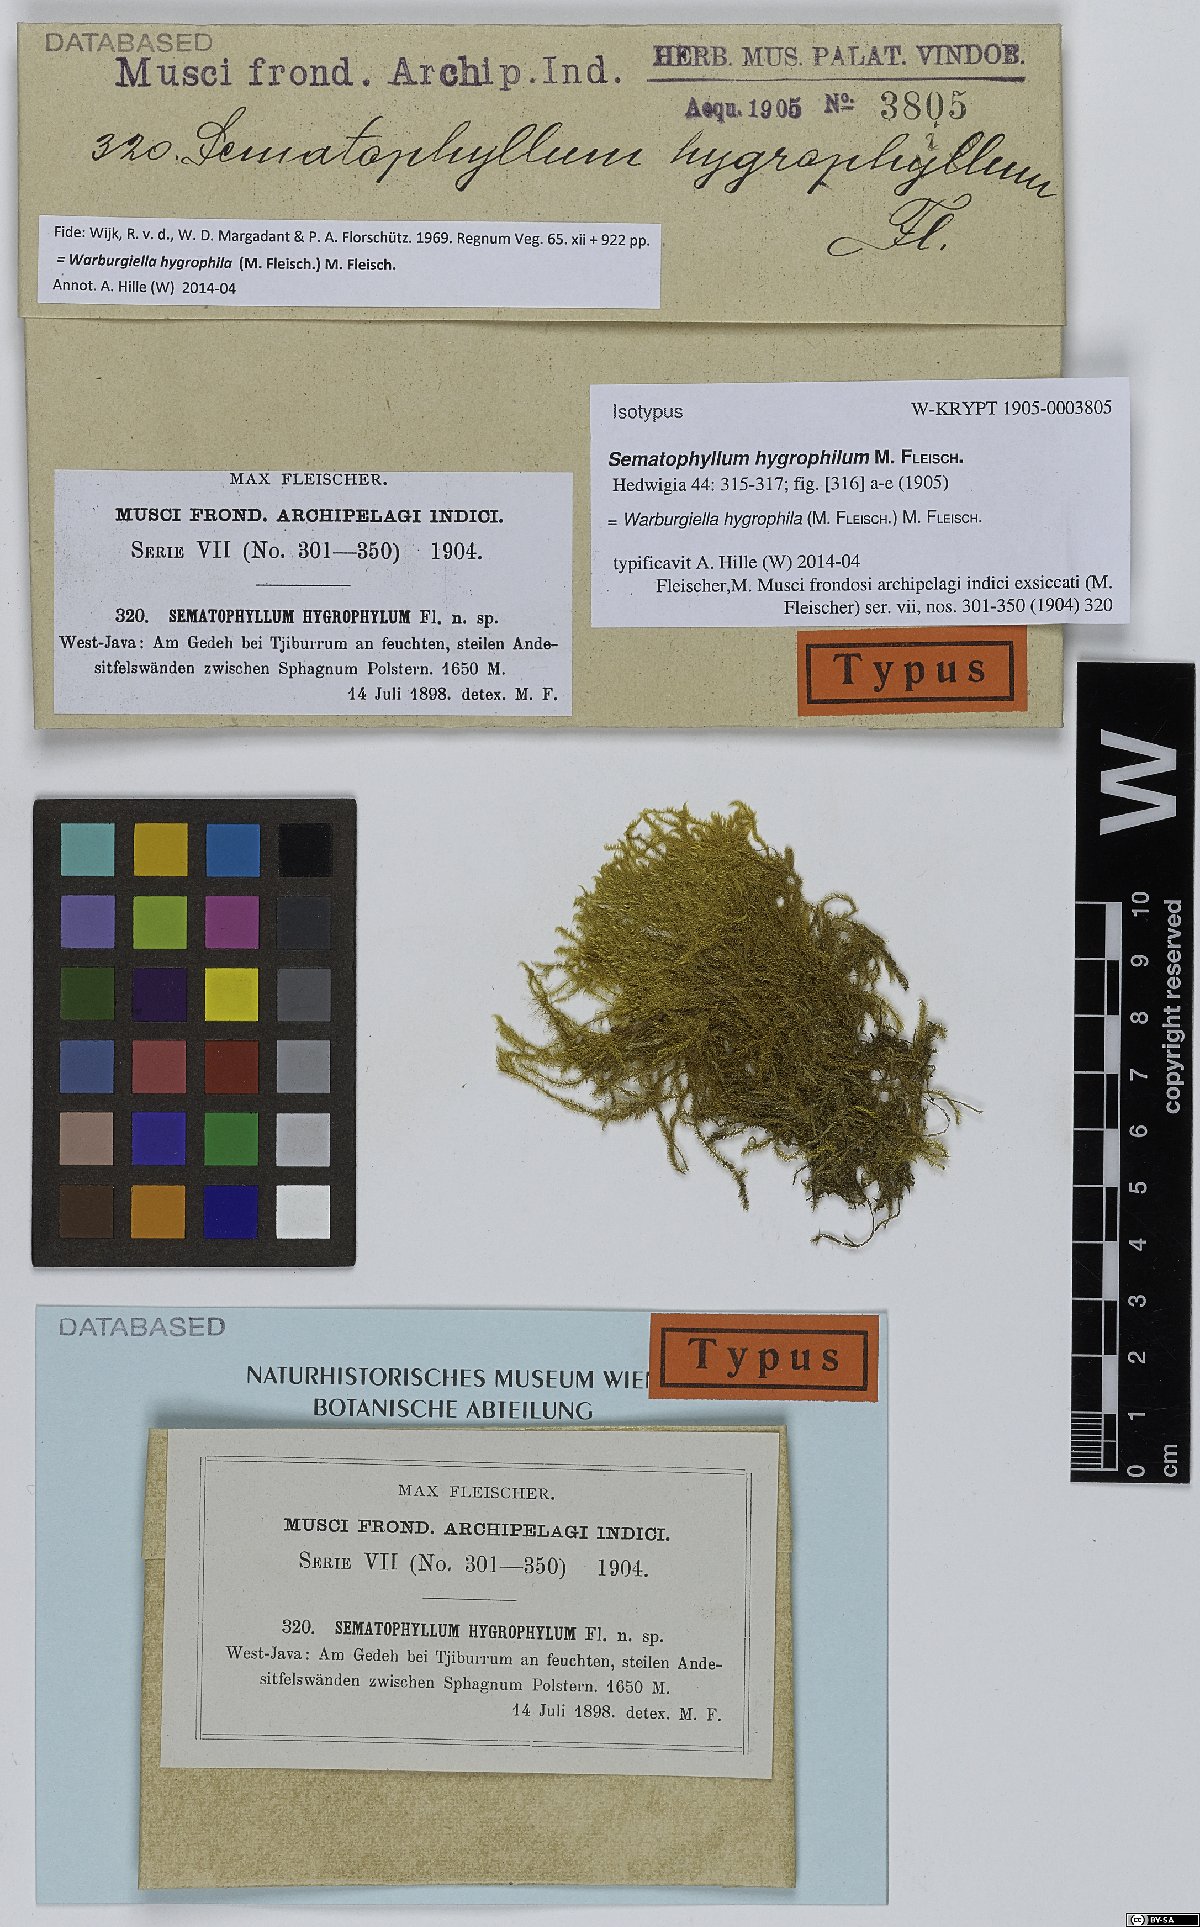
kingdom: Plantae
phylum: Bryophyta
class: Bryopsida
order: Hypnales
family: Sematophyllaceae
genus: Warburgiella
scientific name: Warburgiella hygrophila
